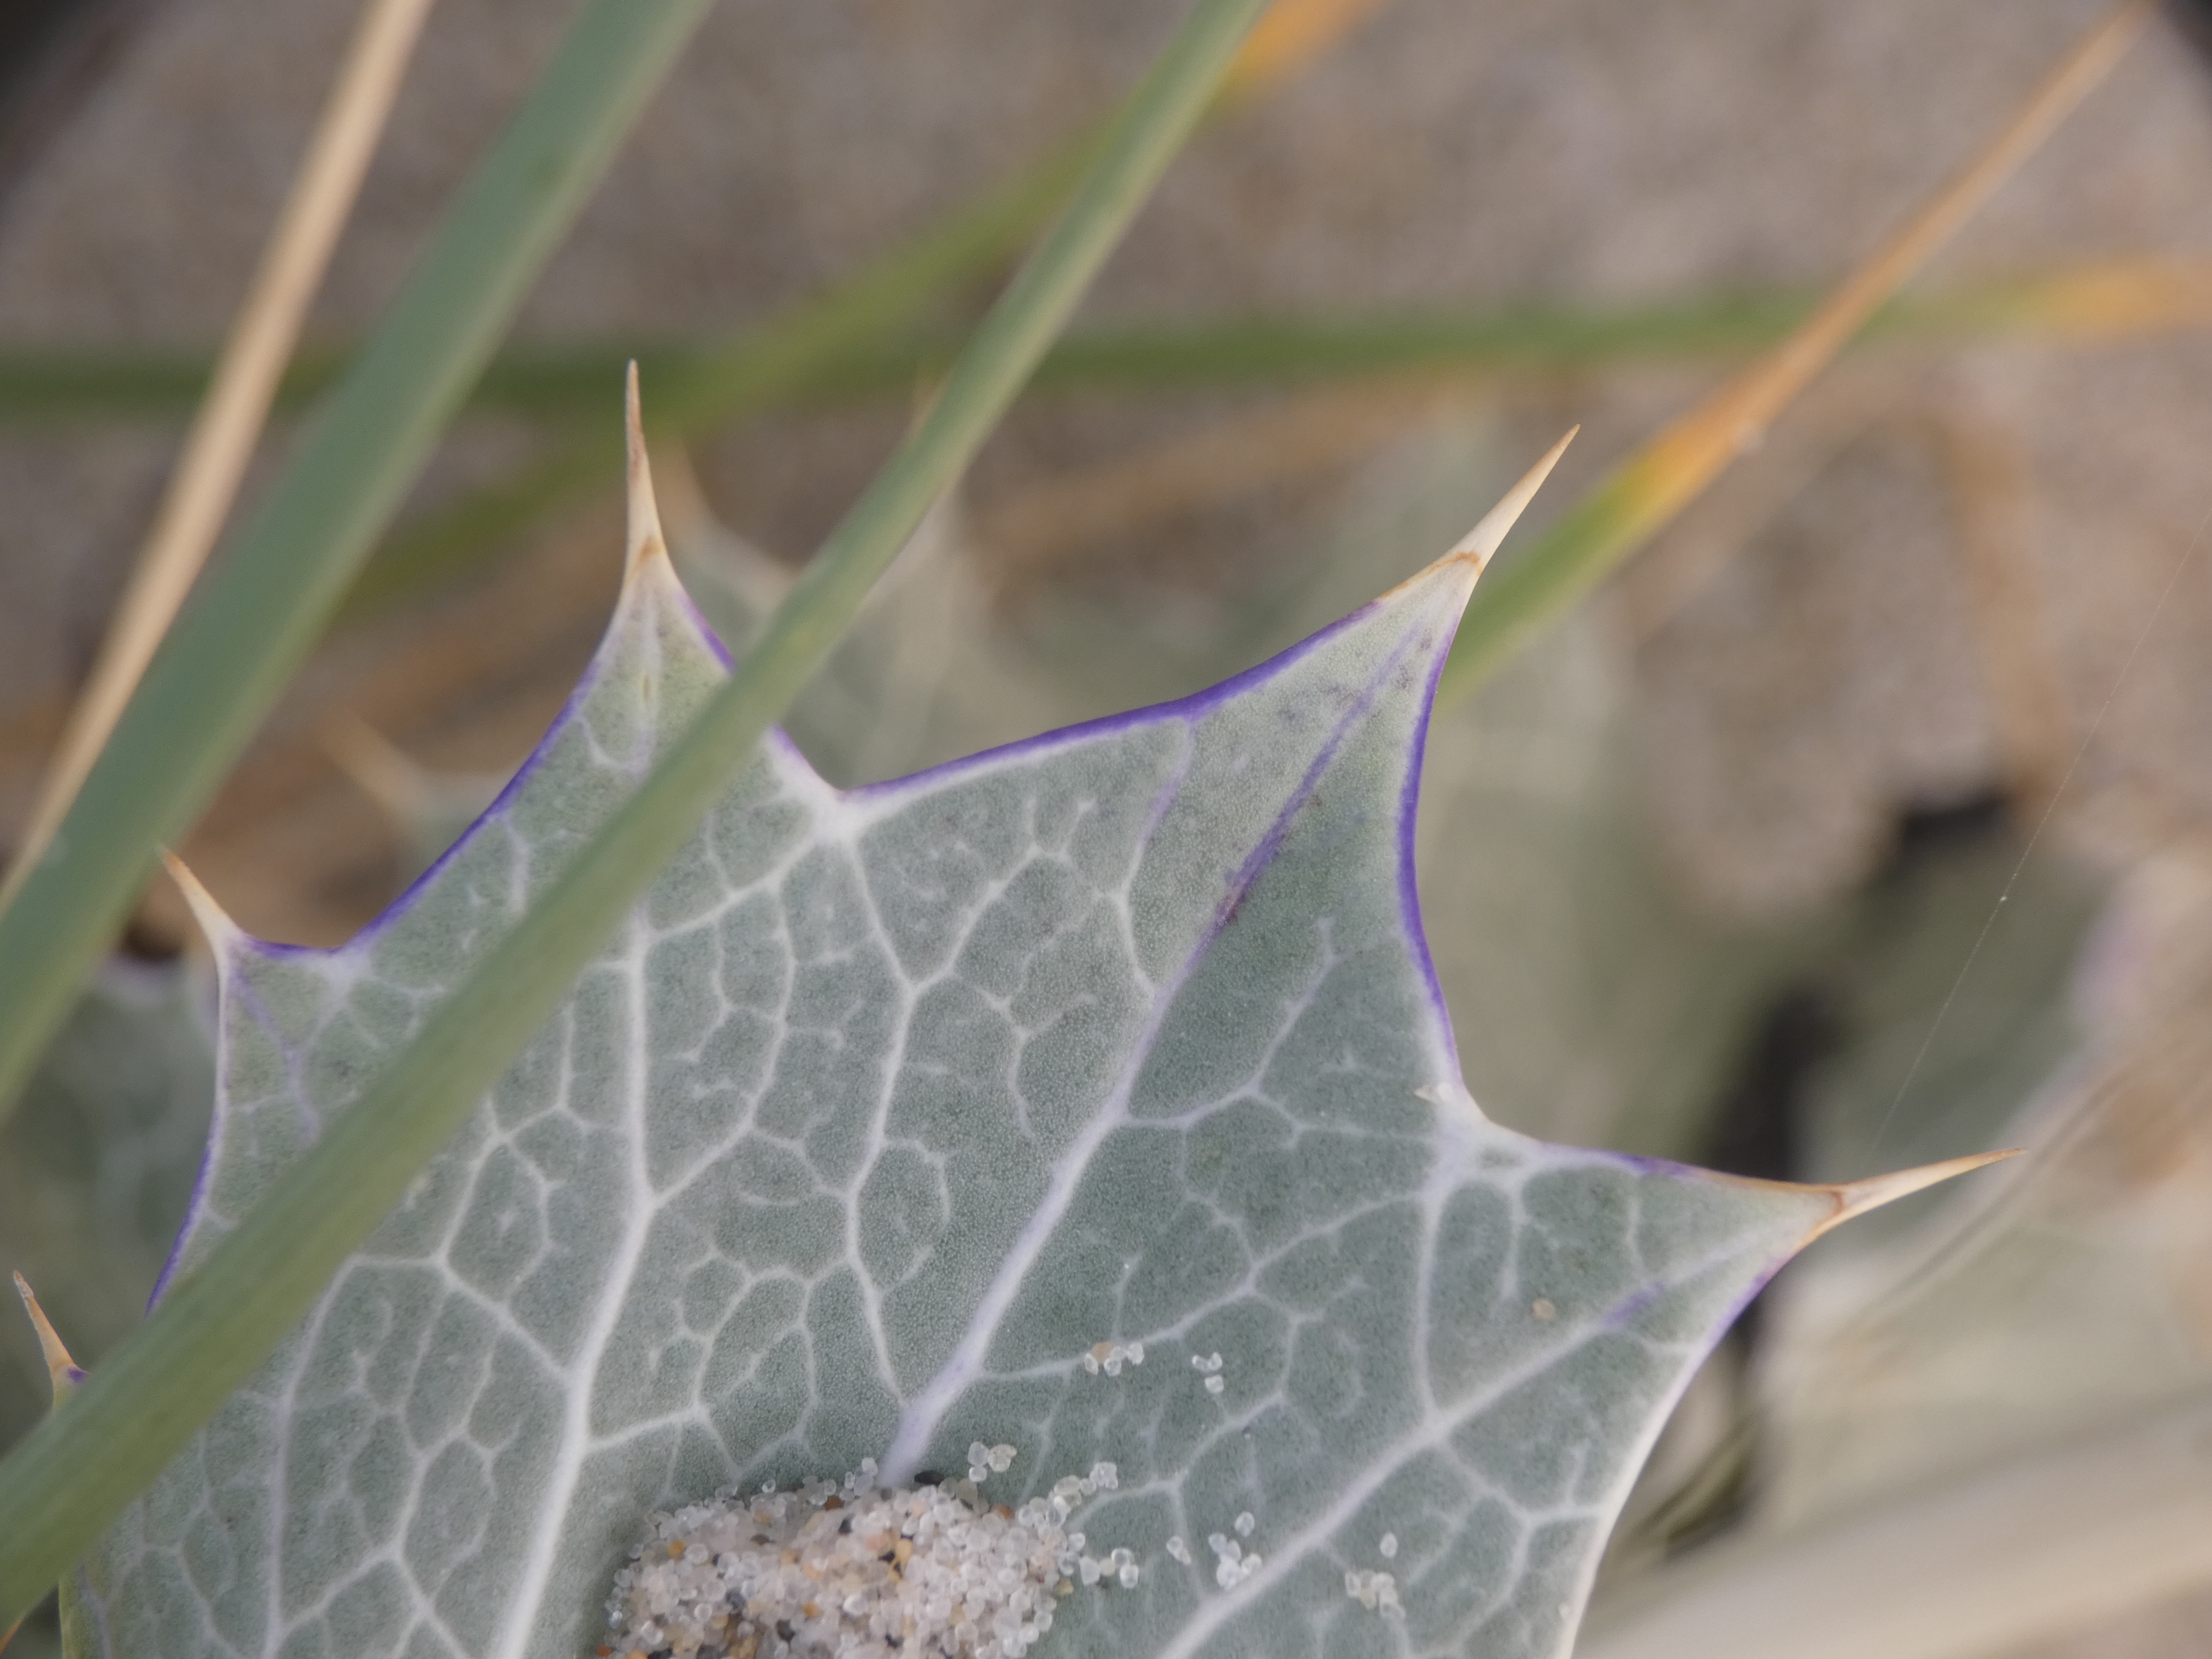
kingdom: Plantae
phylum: Tracheophyta
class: Magnoliopsida
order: Apiales
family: Apiaceae
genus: Eryngium
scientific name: Eryngium maritimum
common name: Strand-mandstro
